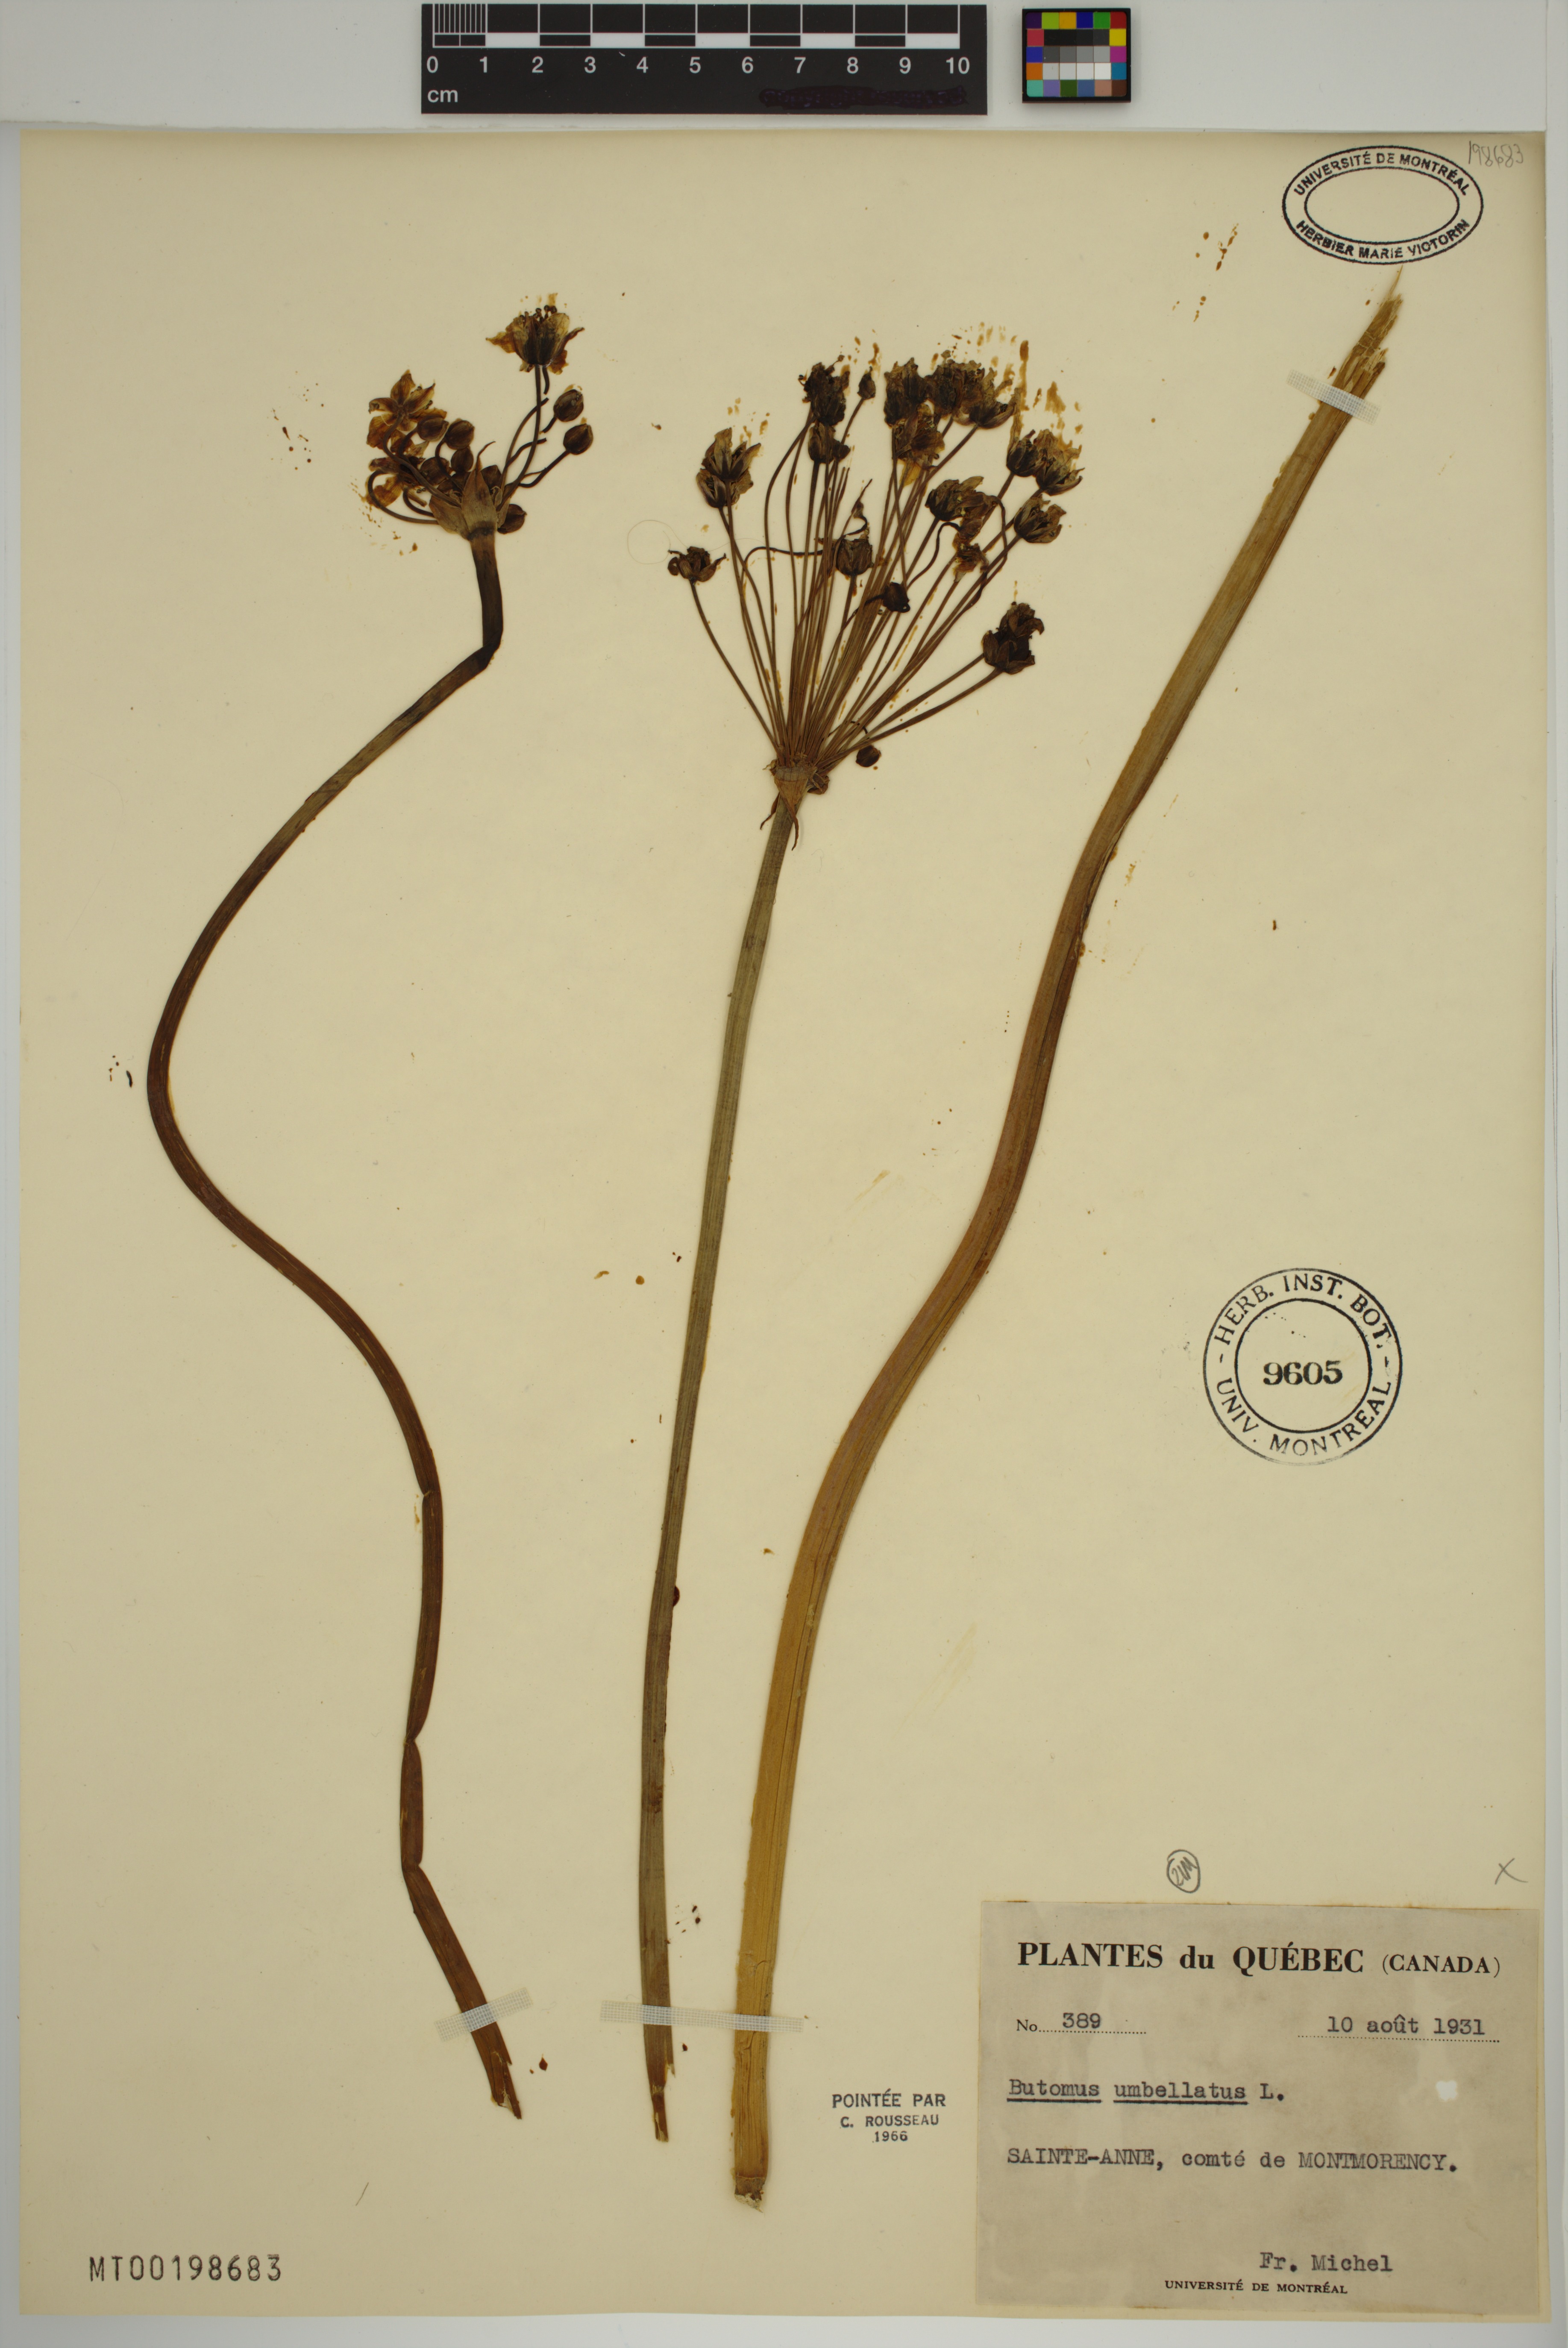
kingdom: Plantae
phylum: Tracheophyta
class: Liliopsida
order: Alismatales
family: Butomaceae
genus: Butomus
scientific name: Butomus umbellatus
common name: Flowering-rush
